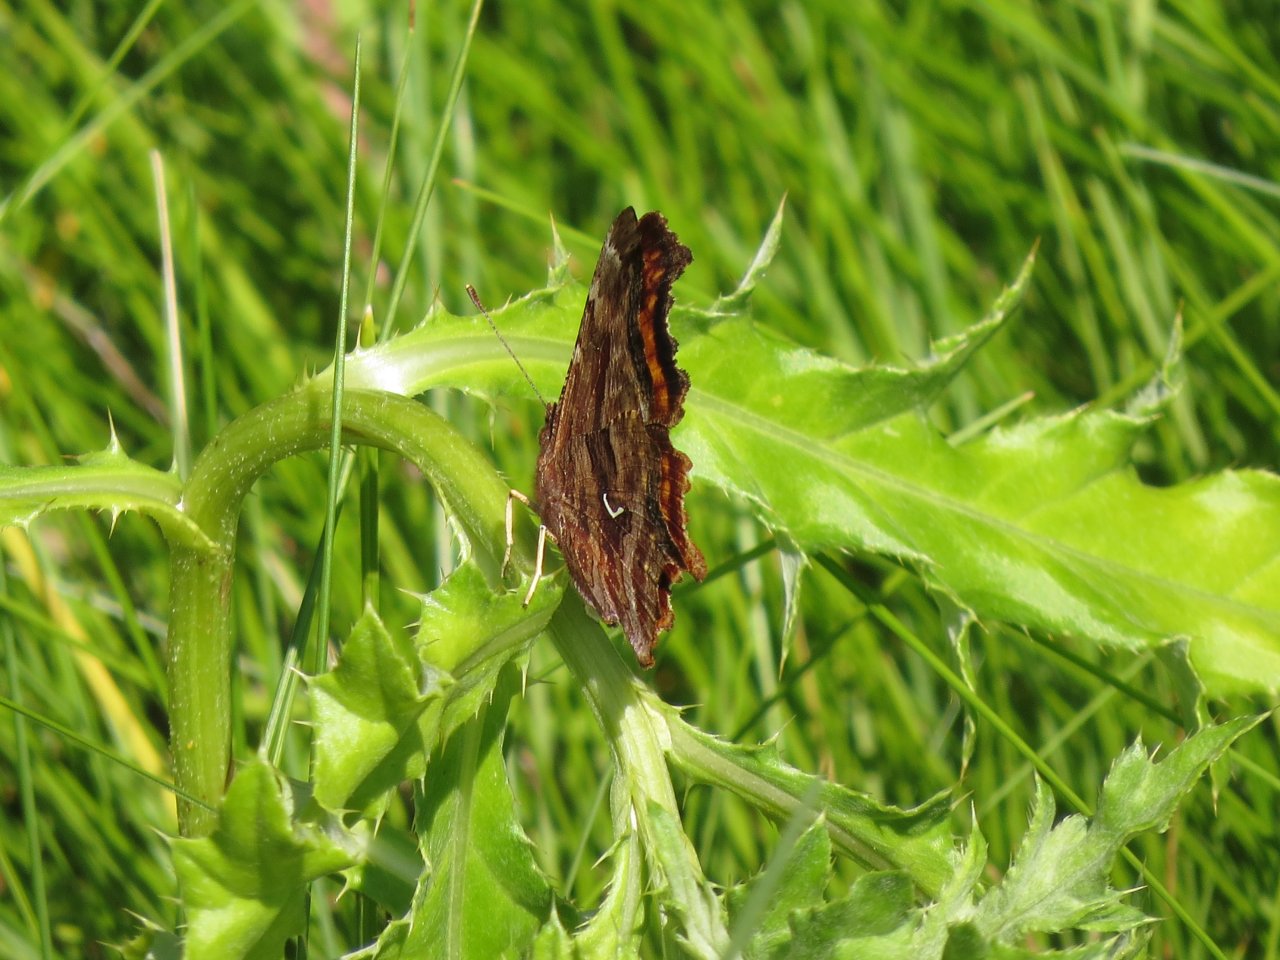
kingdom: Animalia
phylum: Arthropoda
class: Insecta
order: Lepidoptera
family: Nymphalidae
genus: Polygonia
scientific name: Polygonia comma
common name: Eastern Comma
